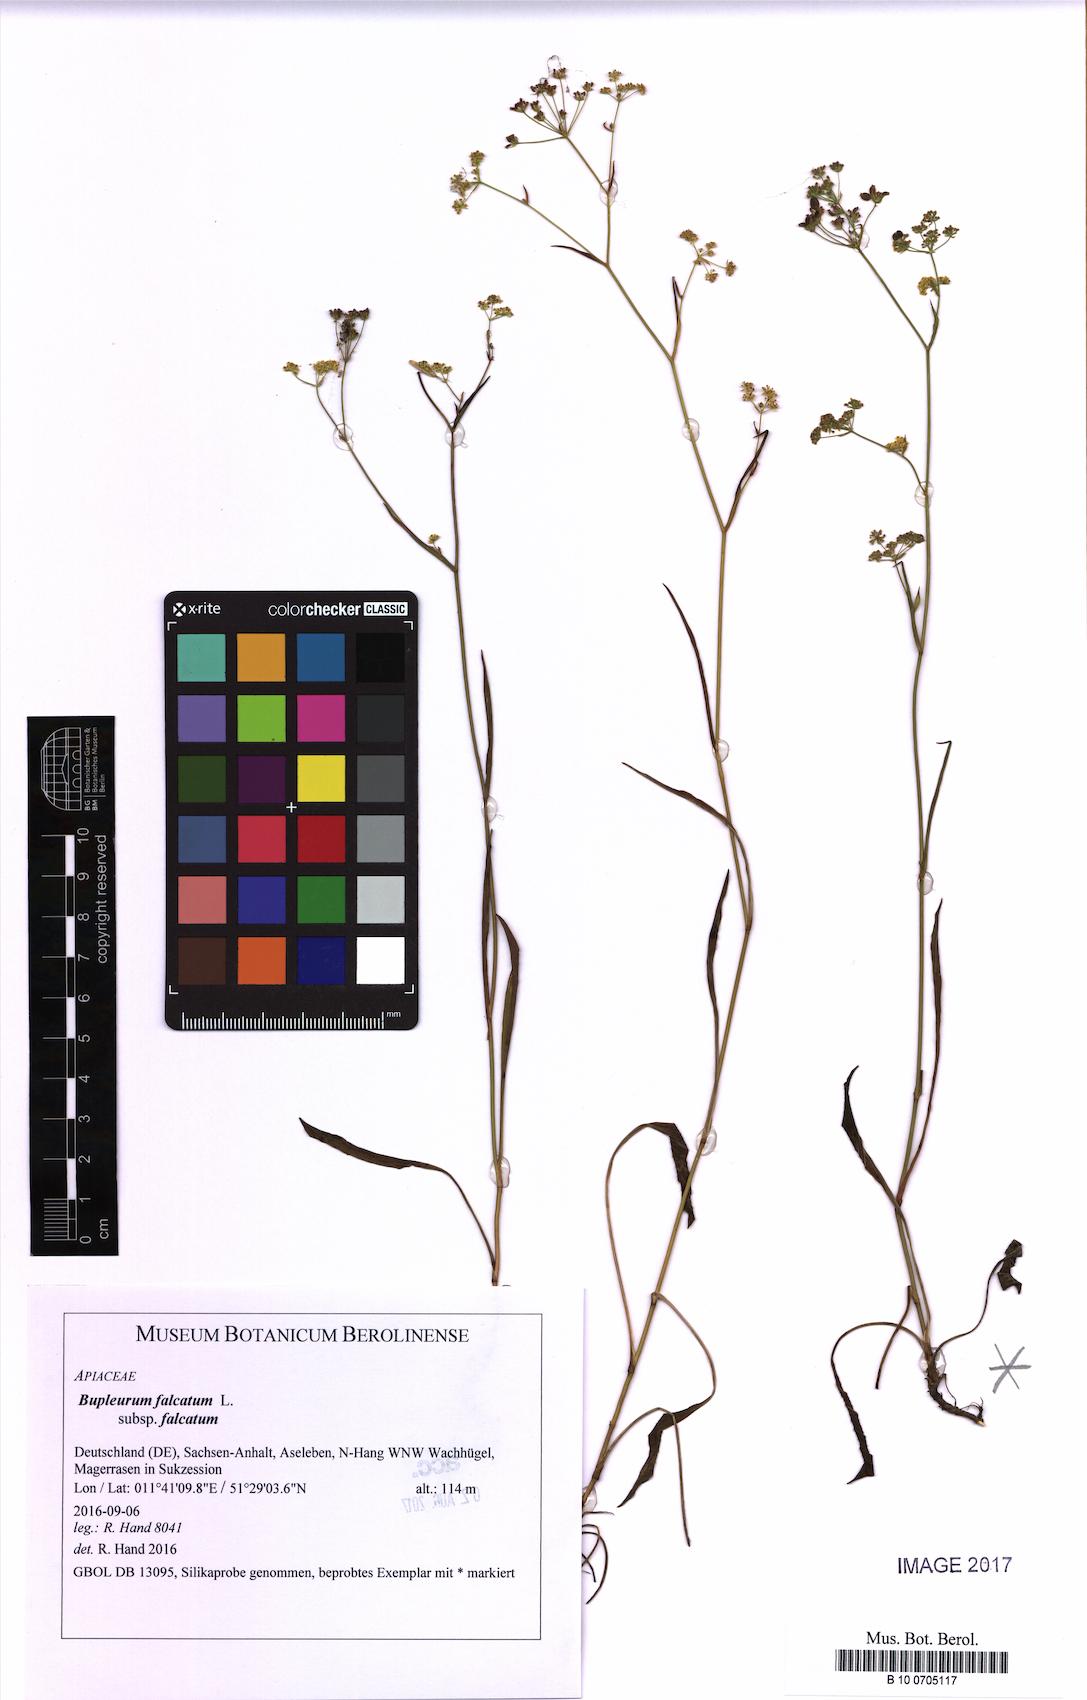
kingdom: Plantae
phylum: Tracheophyta
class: Magnoliopsida
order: Apiales
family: Apiaceae
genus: Bupleurum
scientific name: Bupleurum falcatum
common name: Sickle-leaved hare's-ear
